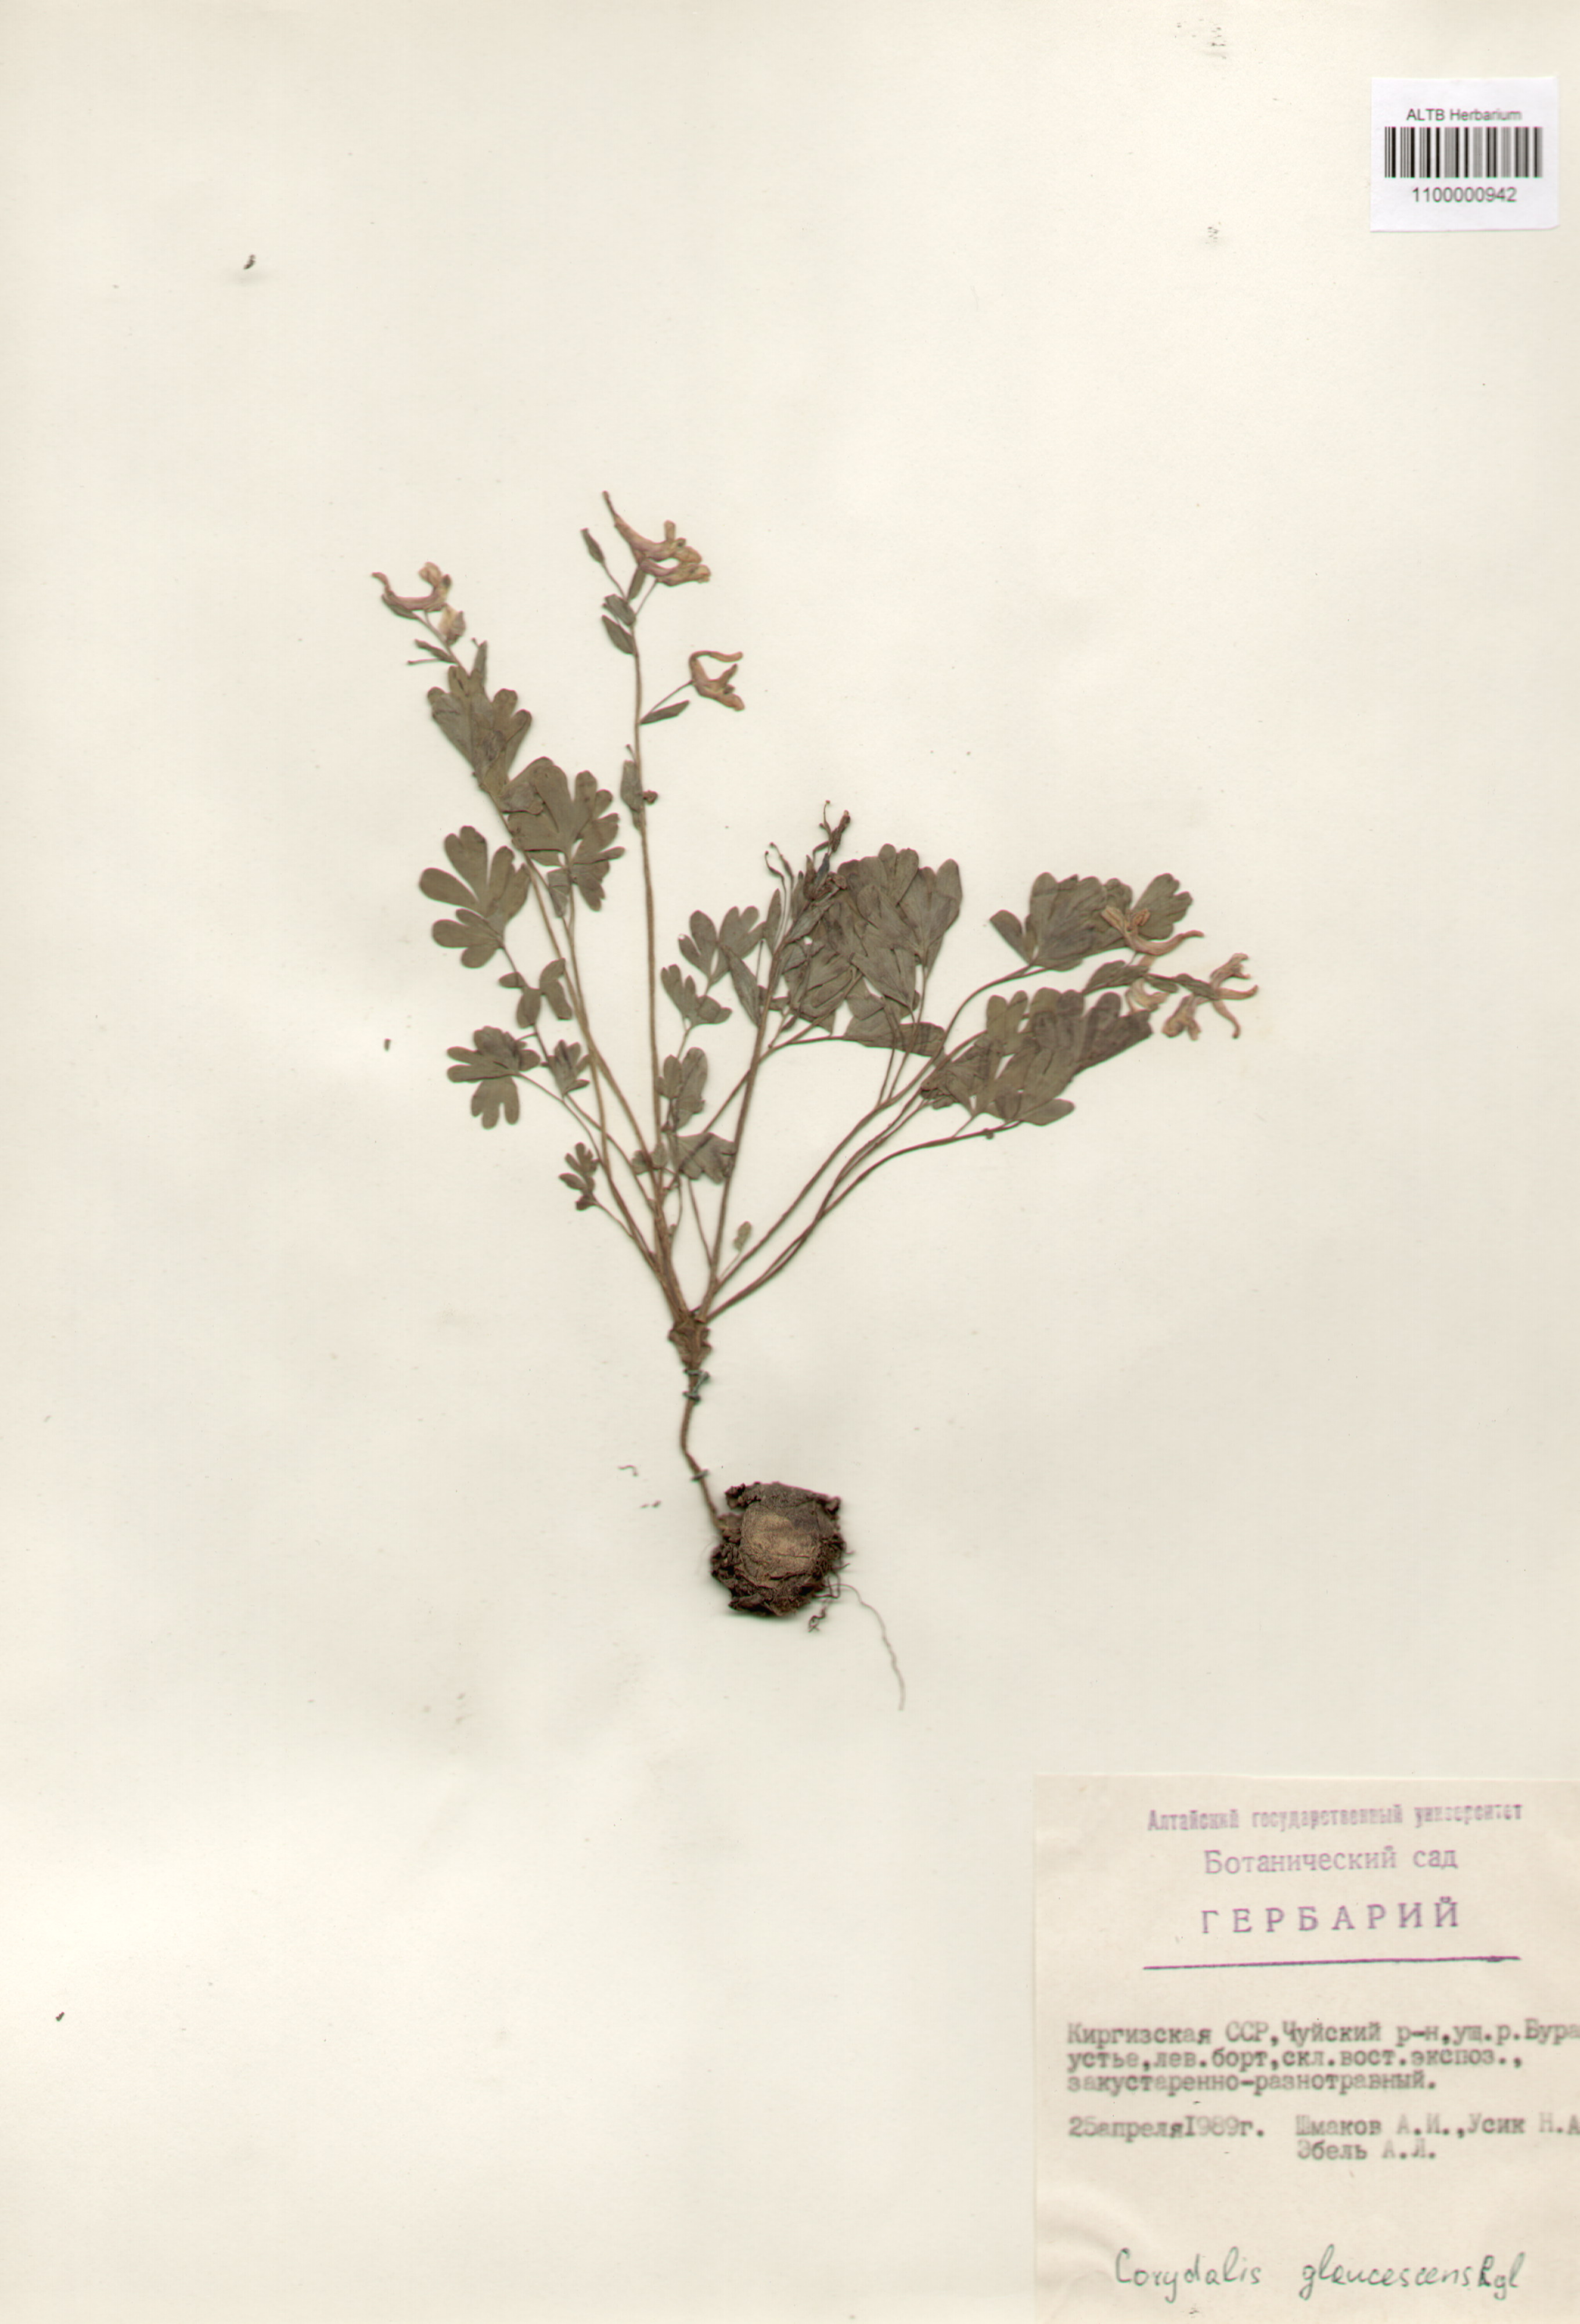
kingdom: Plantae
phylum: Tracheophyta
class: Magnoliopsida
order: Ranunculales
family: Papaveraceae
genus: Corydalis
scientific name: Corydalis glaucescens
